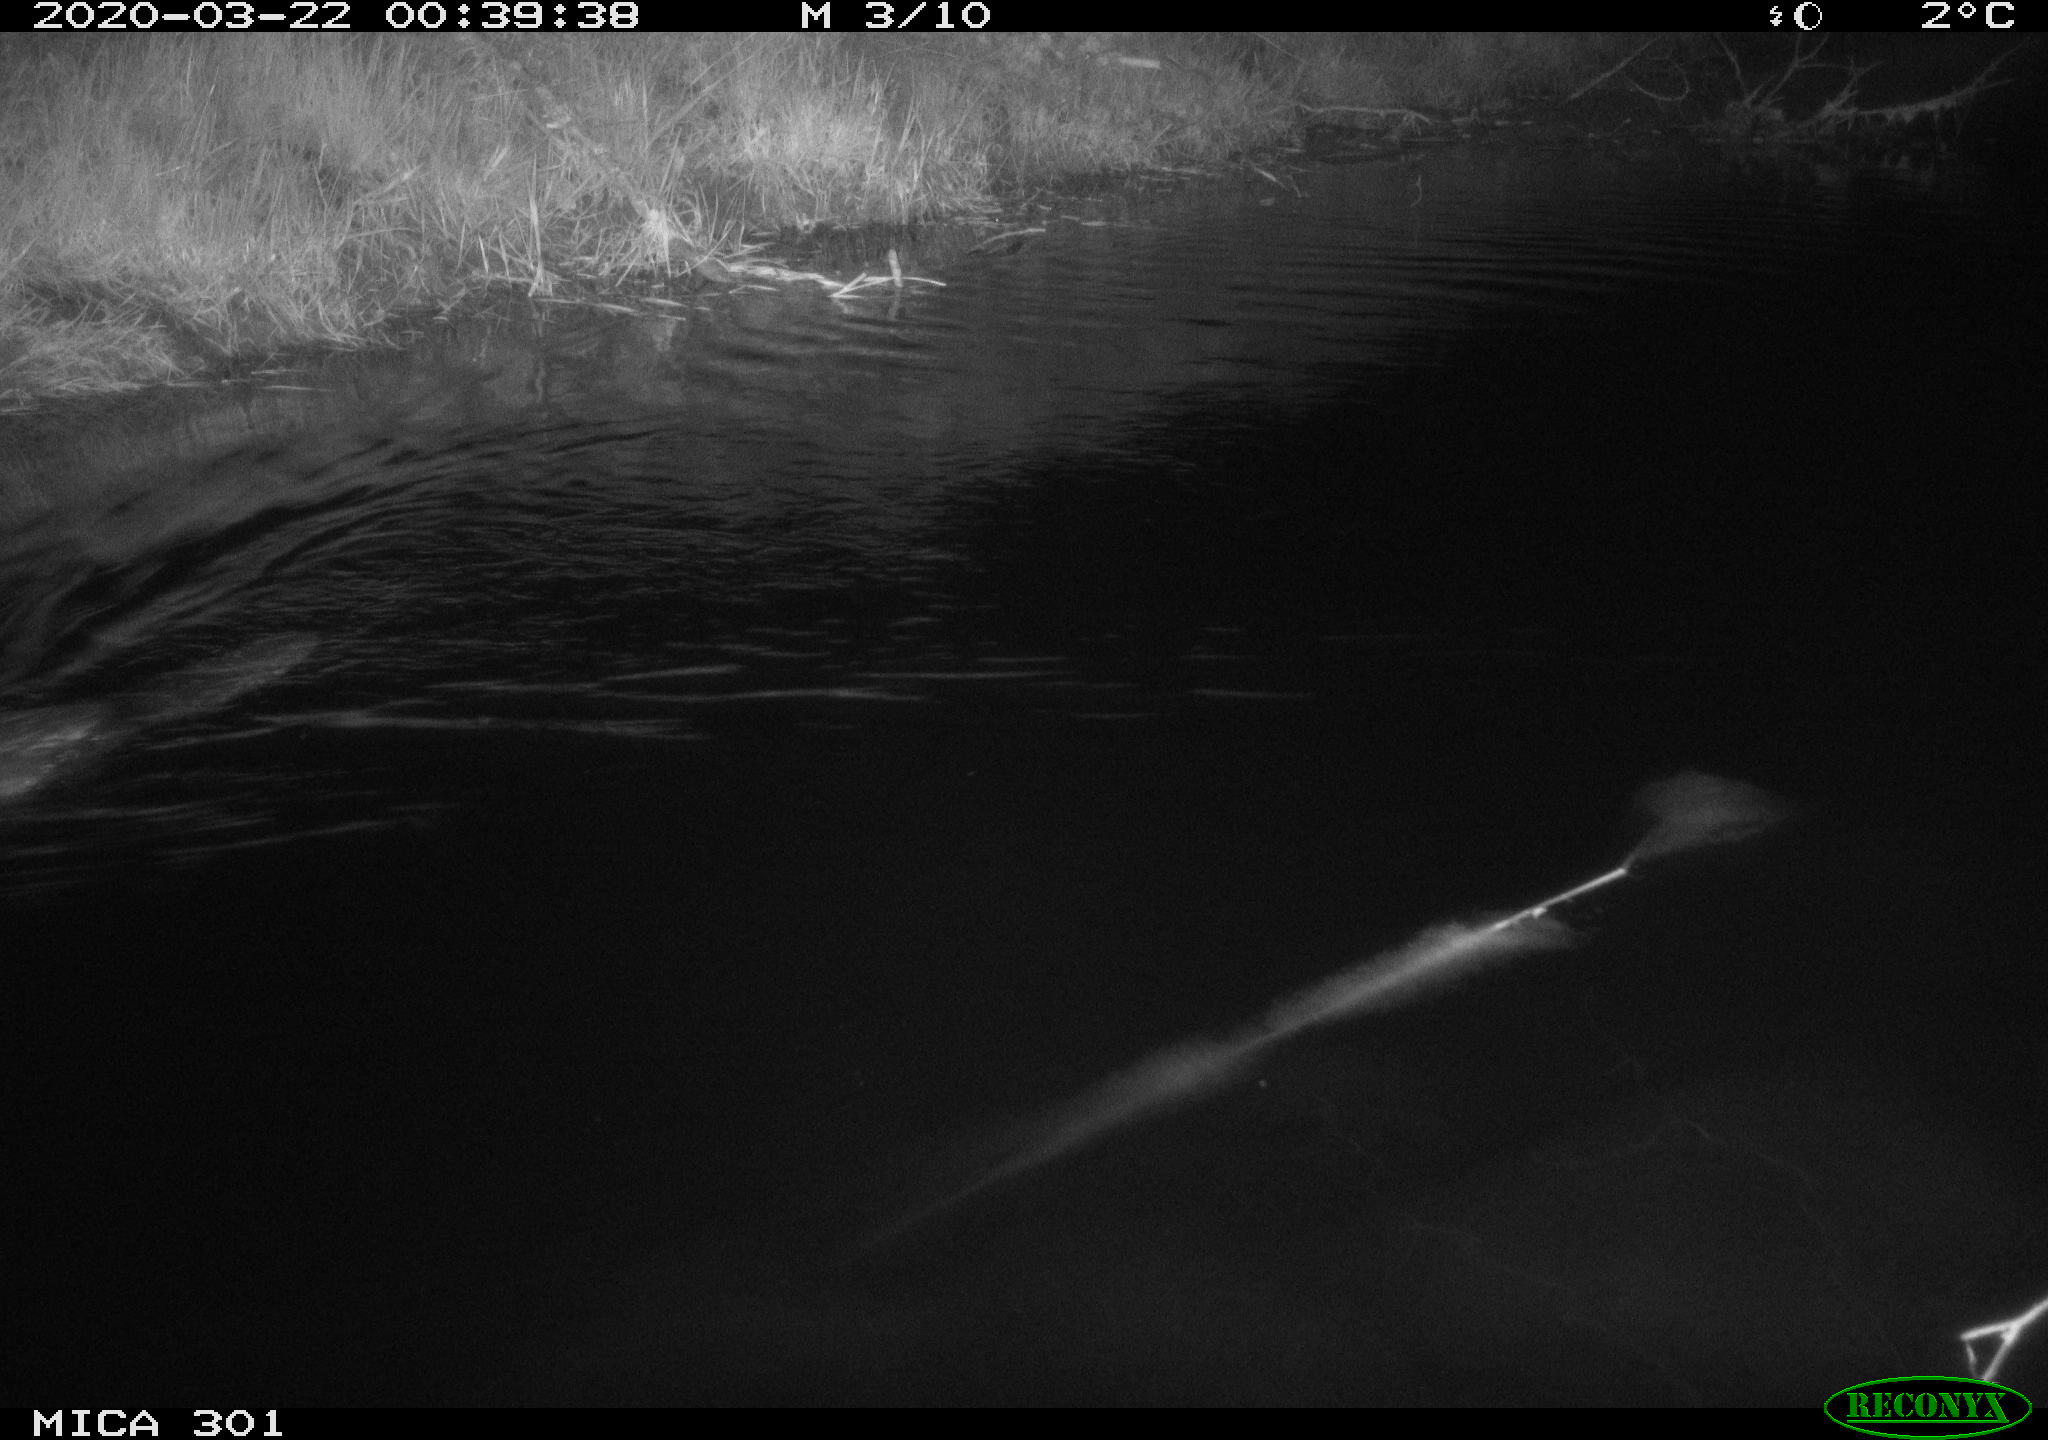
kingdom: Animalia
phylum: Chordata
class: Mammalia
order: Rodentia
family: Castoridae
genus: Castor
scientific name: Castor fiber
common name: Eurasian beaver
